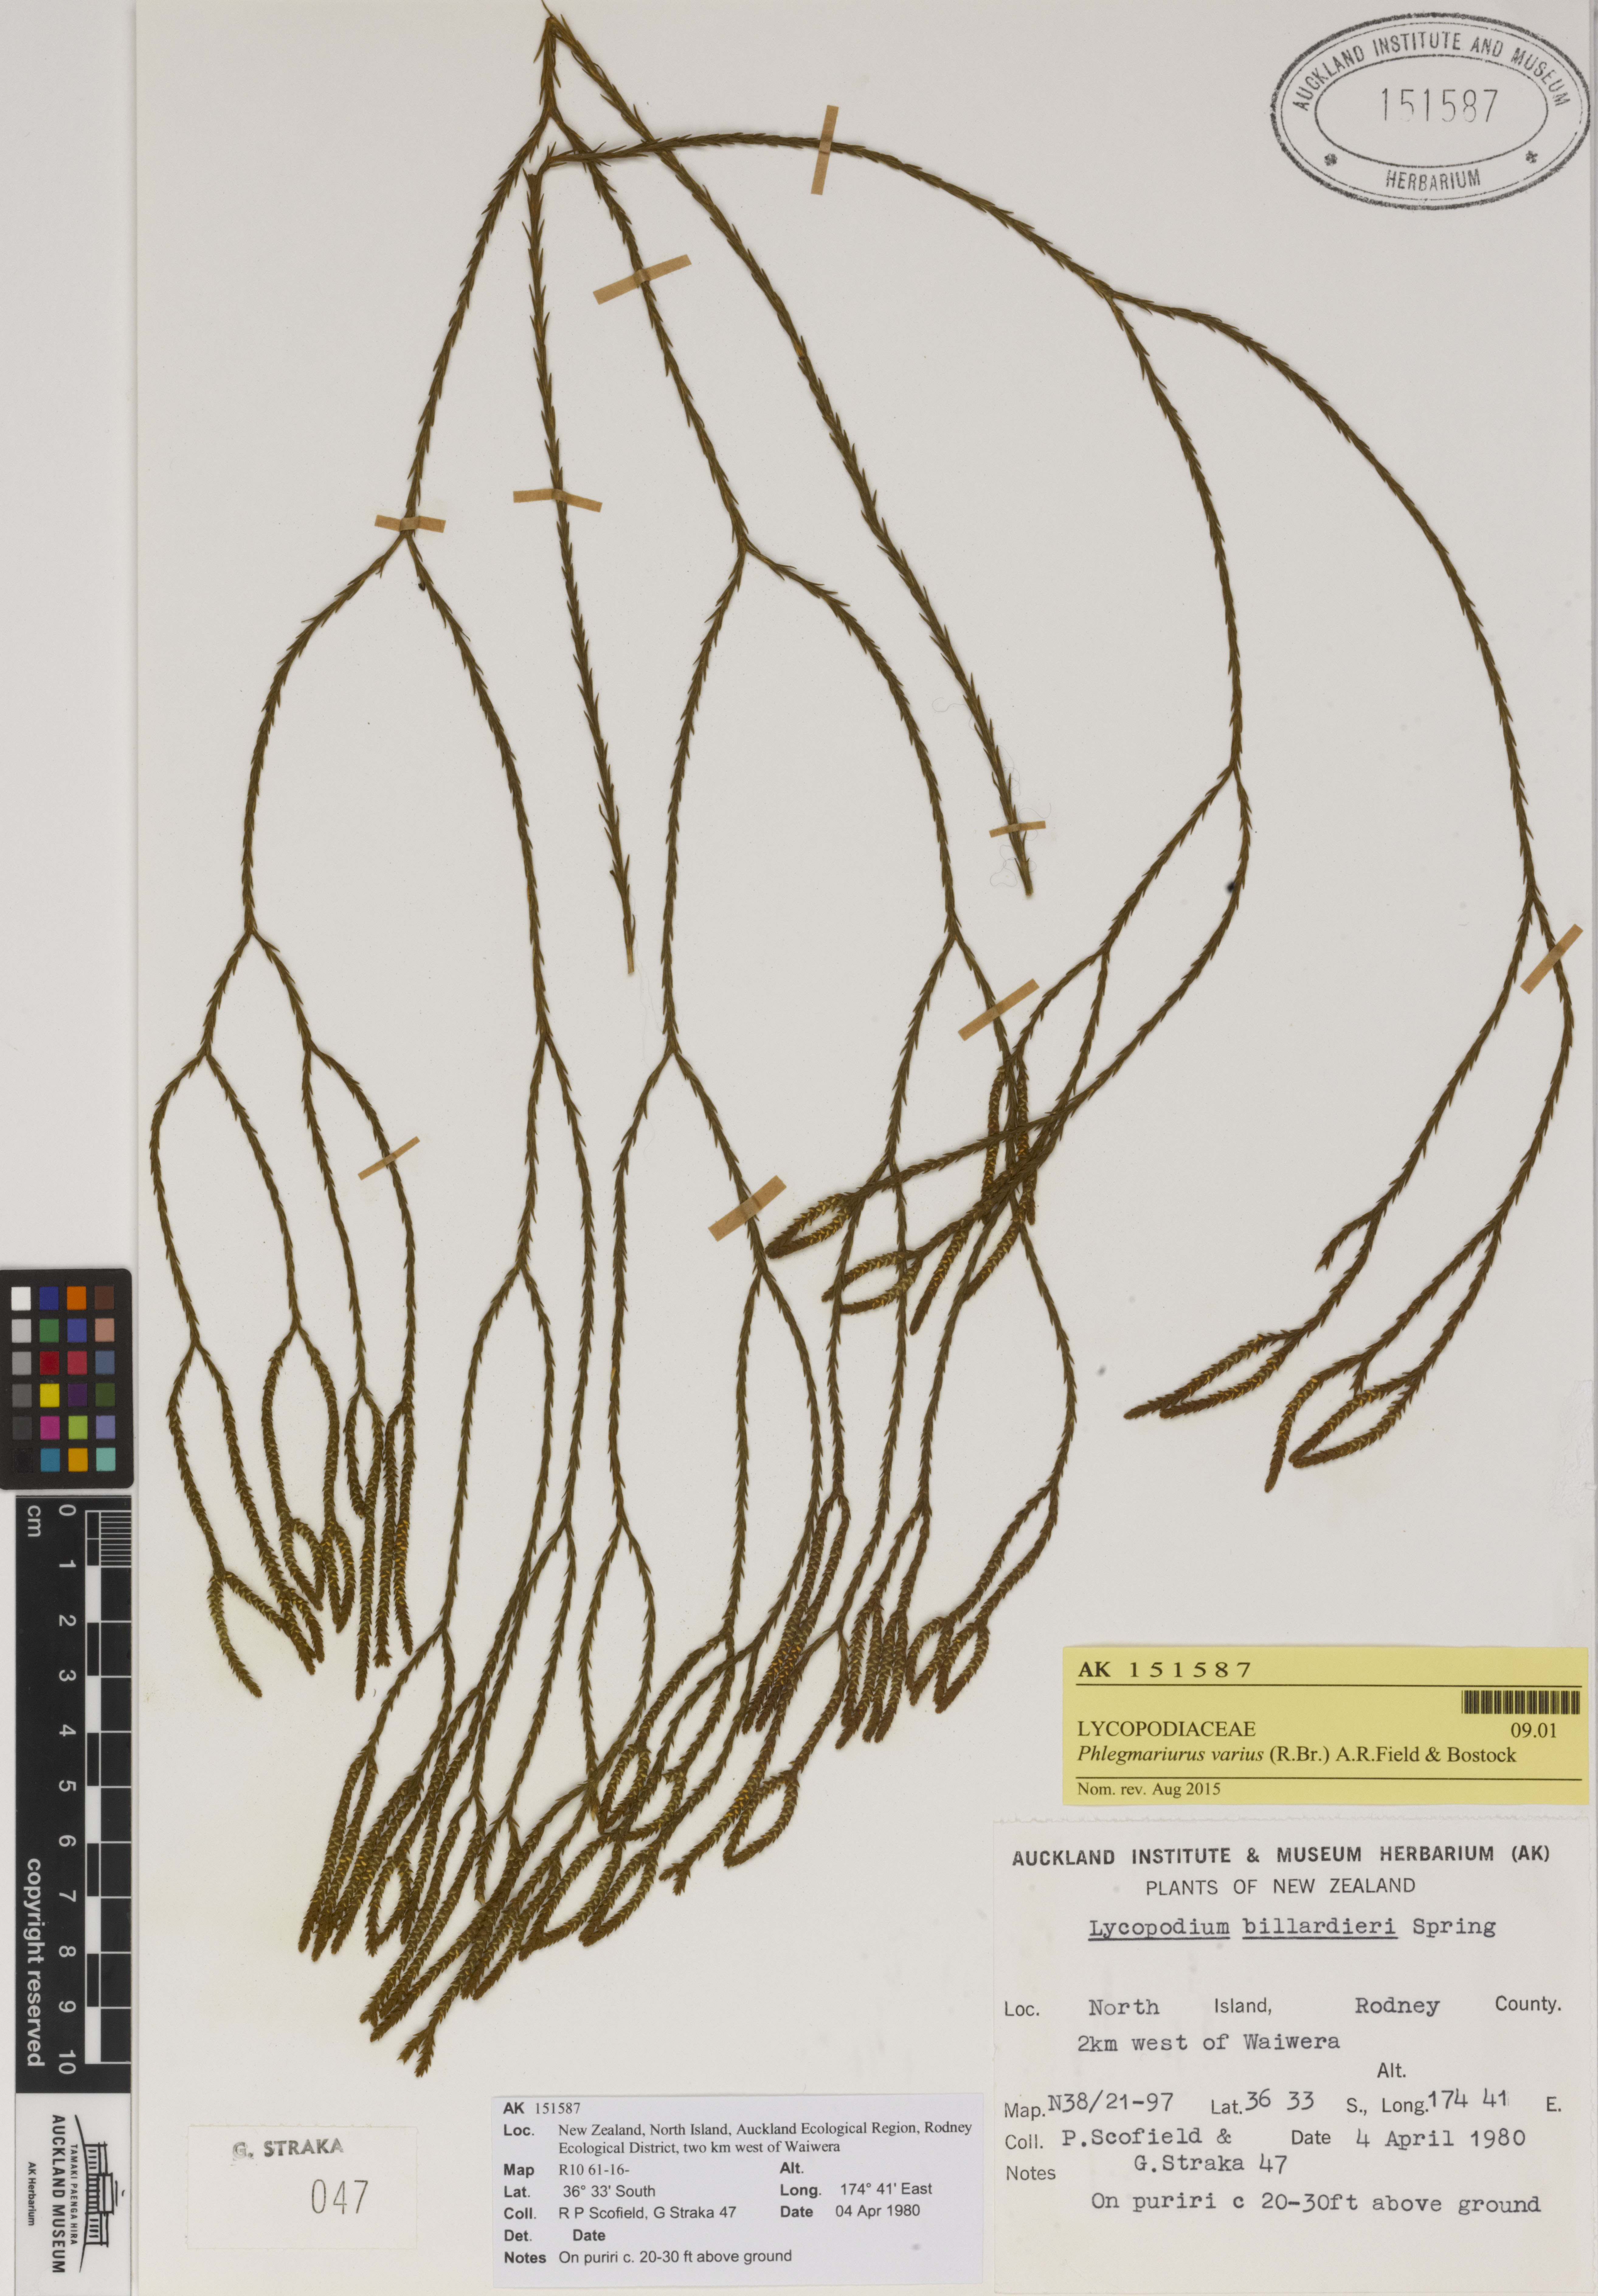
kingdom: Plantae
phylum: Tracheophyta
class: Lycopodiopsida
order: Lycopodiales
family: Lycopodiaceae
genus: Phlegmariurus
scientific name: Phlegmariurus billardierei
